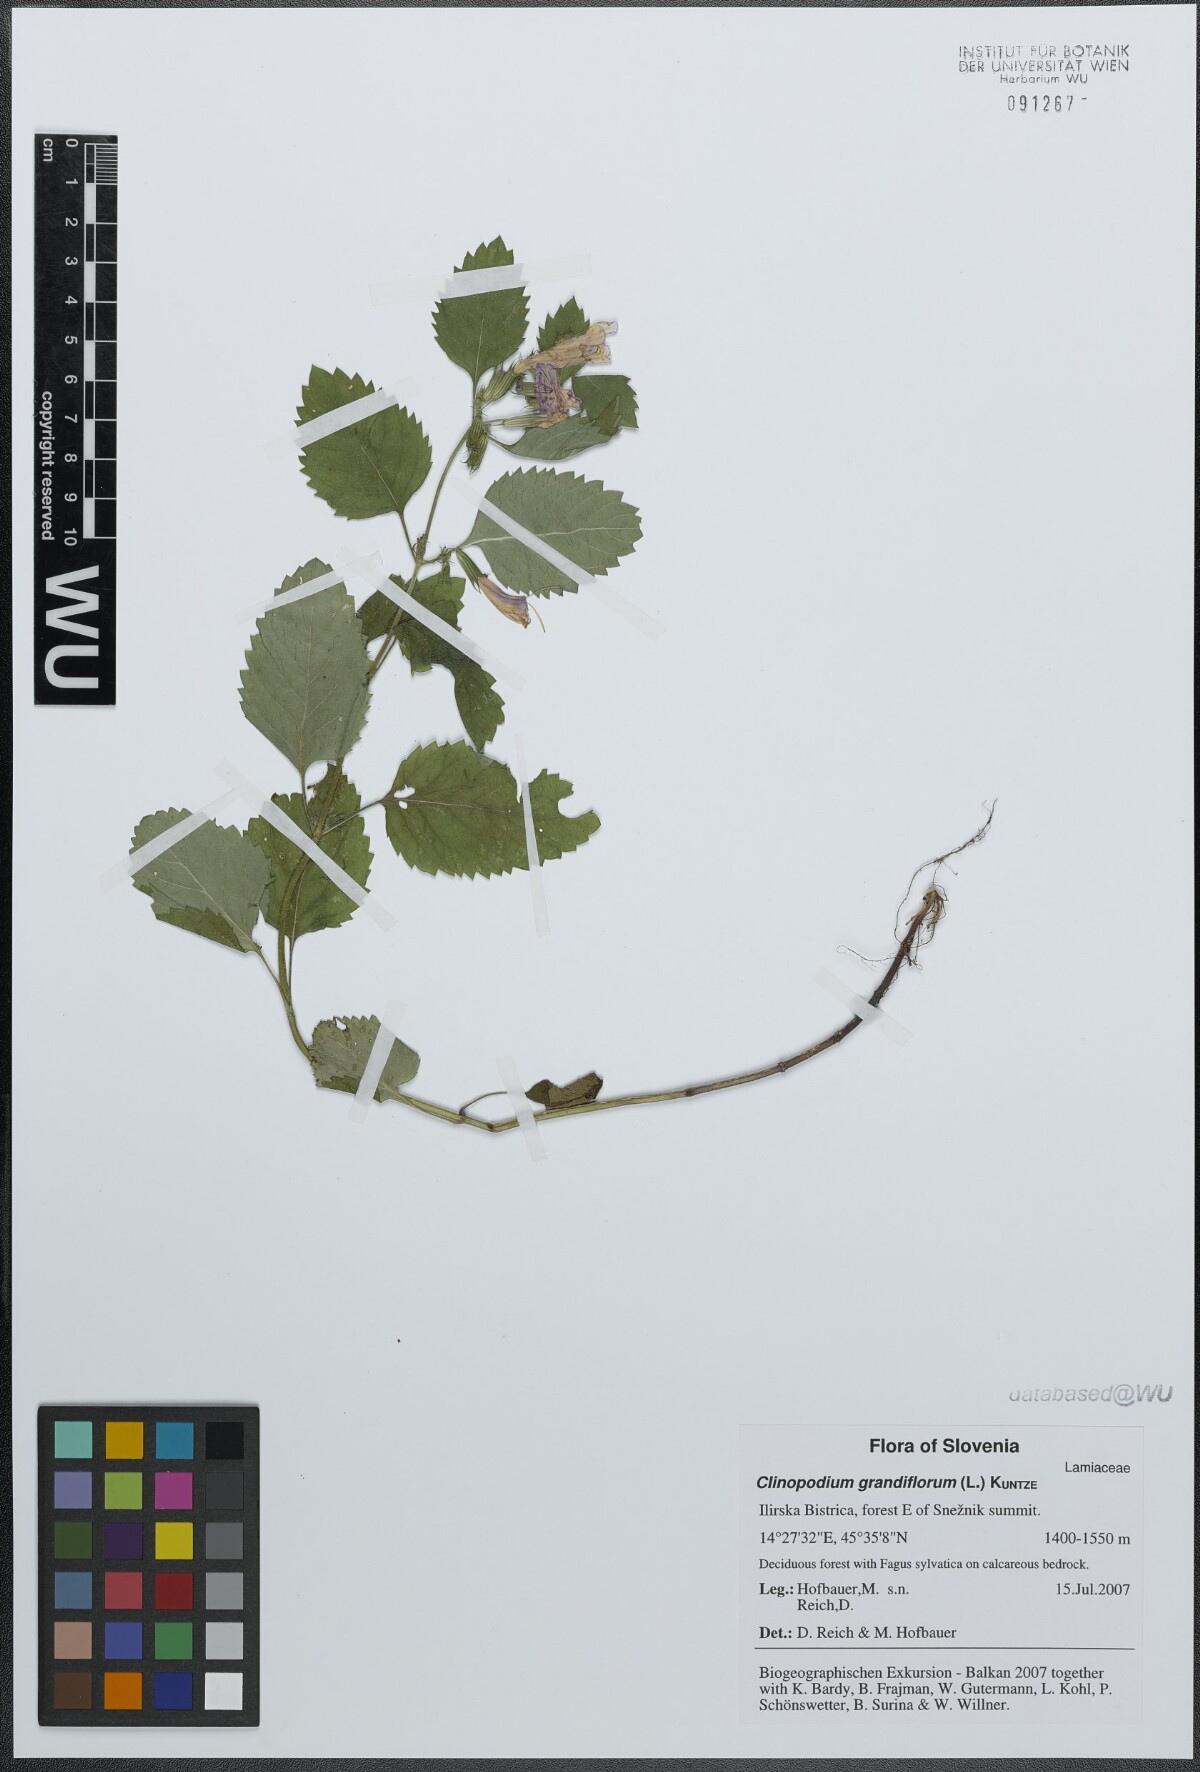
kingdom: Plantae
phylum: Tracheophyta
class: Magnoliopsida
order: Lamiales
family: Lamiaceae
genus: Clinopodium
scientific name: Clinopodium grandiflorum
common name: Greater calamint
